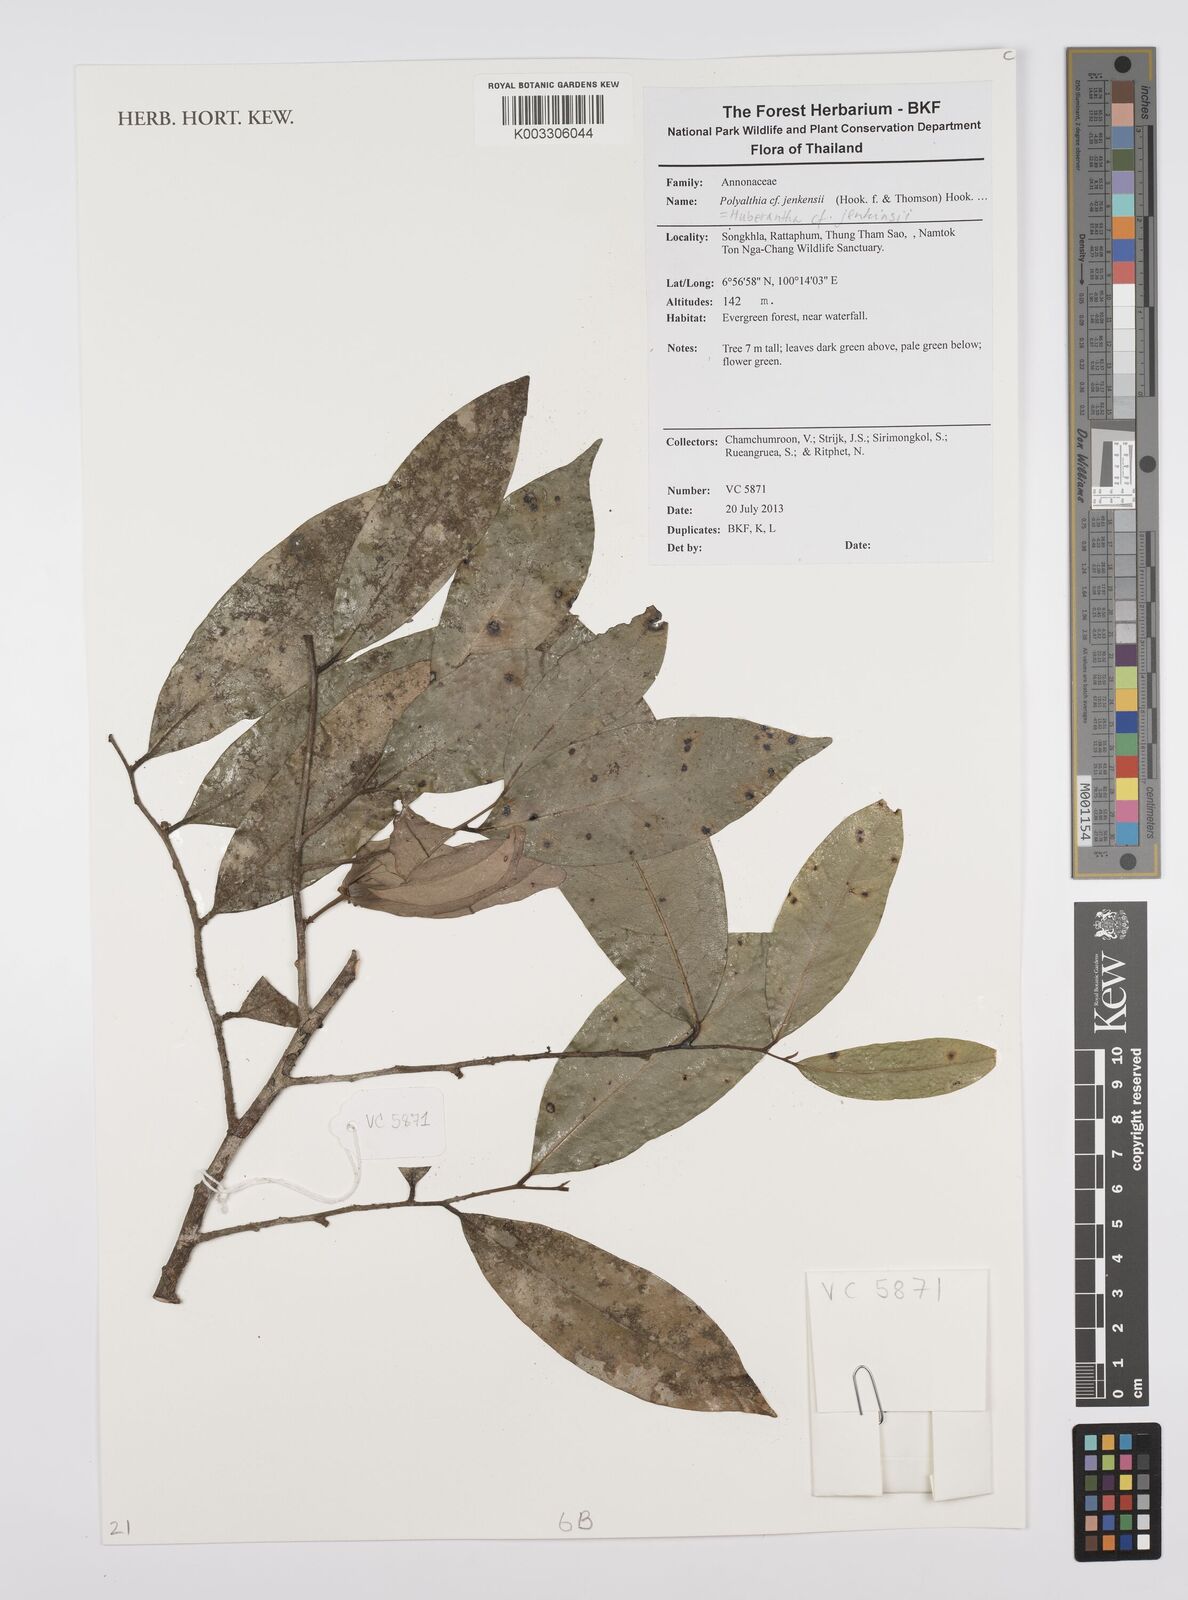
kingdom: Plantae
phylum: Tracheophyta
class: Magnoliopsida
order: Magnoliales
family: Annonaceae
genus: Hubera
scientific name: Hubera jenkinsii
